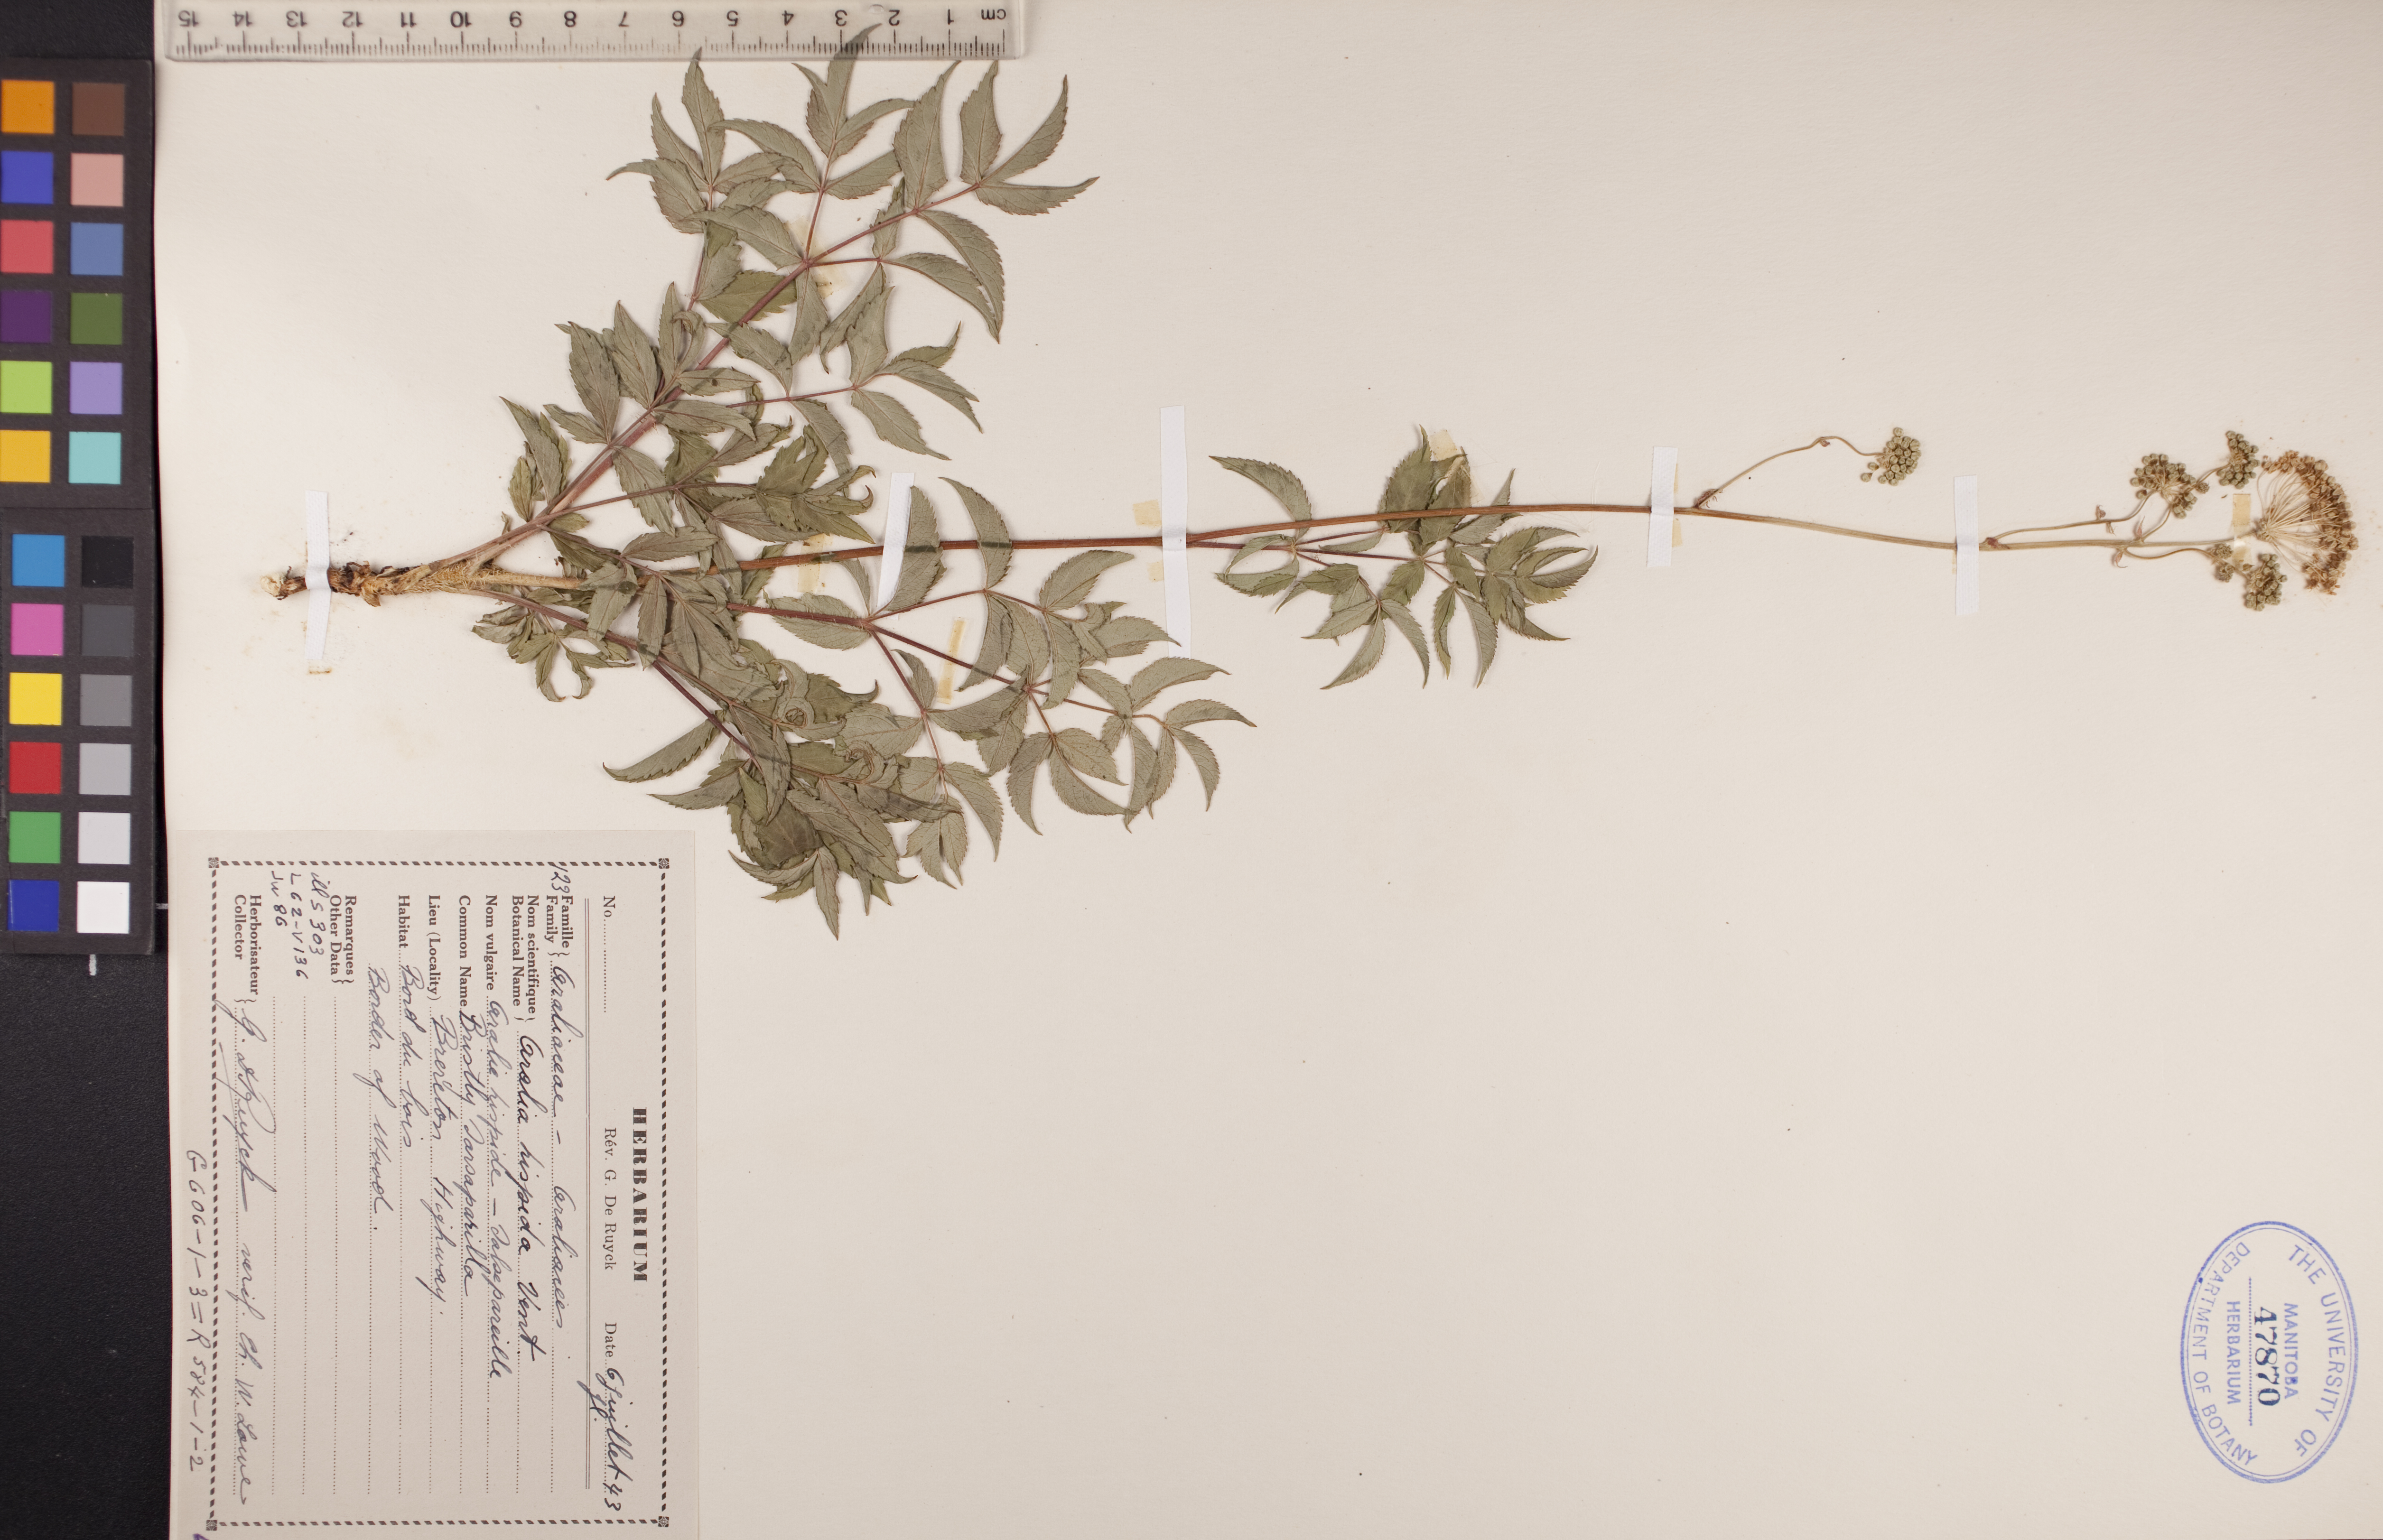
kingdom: Plantae
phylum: Tracheophyta
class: Magnoliopsida
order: Apiales
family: Araliaceae
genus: Aralia
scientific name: Aralia hispida
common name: Bristly sarsaparilla
